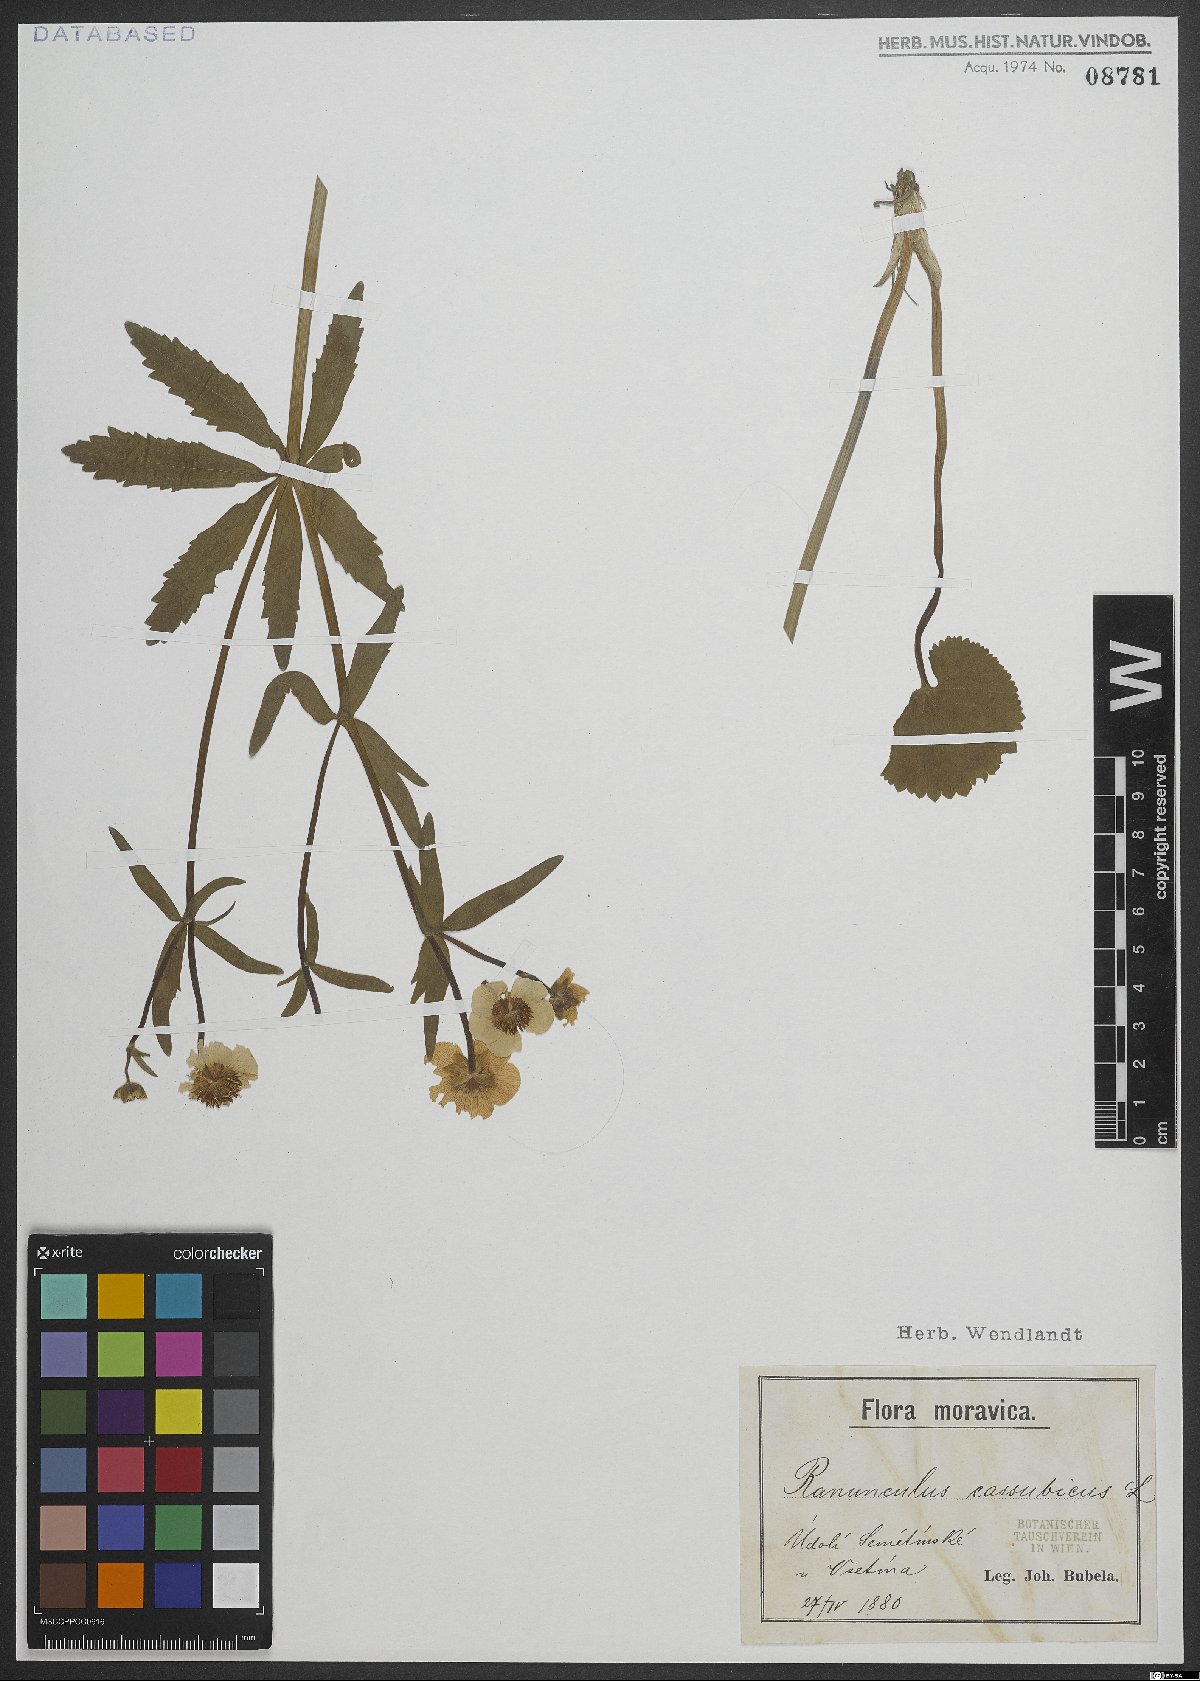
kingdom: Plantae
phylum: Tracheophyta
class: Magnoliopsida
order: Ranunculales
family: Ranunculaceae
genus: Ranunculus
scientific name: Ranunculus cassubicus
